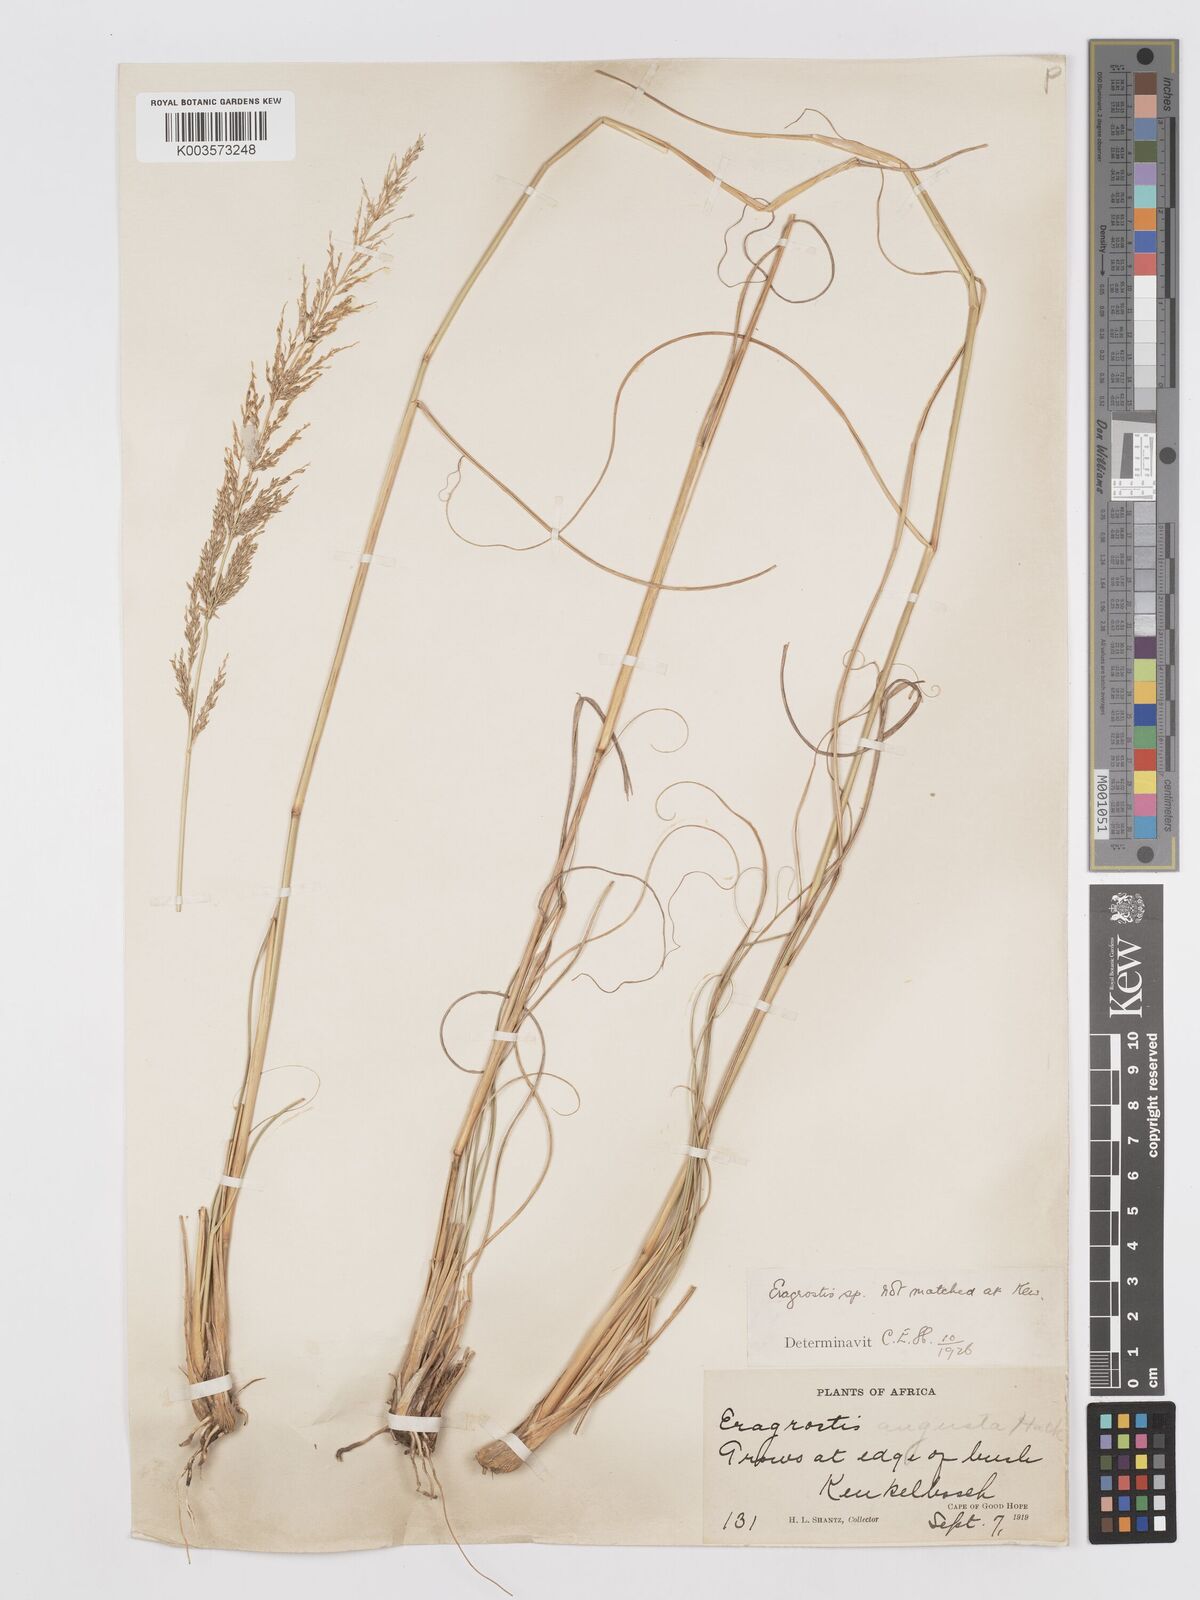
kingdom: Plantae
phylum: Tracheophyta
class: Liliopsida
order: Poales
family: Poaceae
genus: Eragrostis
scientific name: Eragrostis curvula
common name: African love-grass
